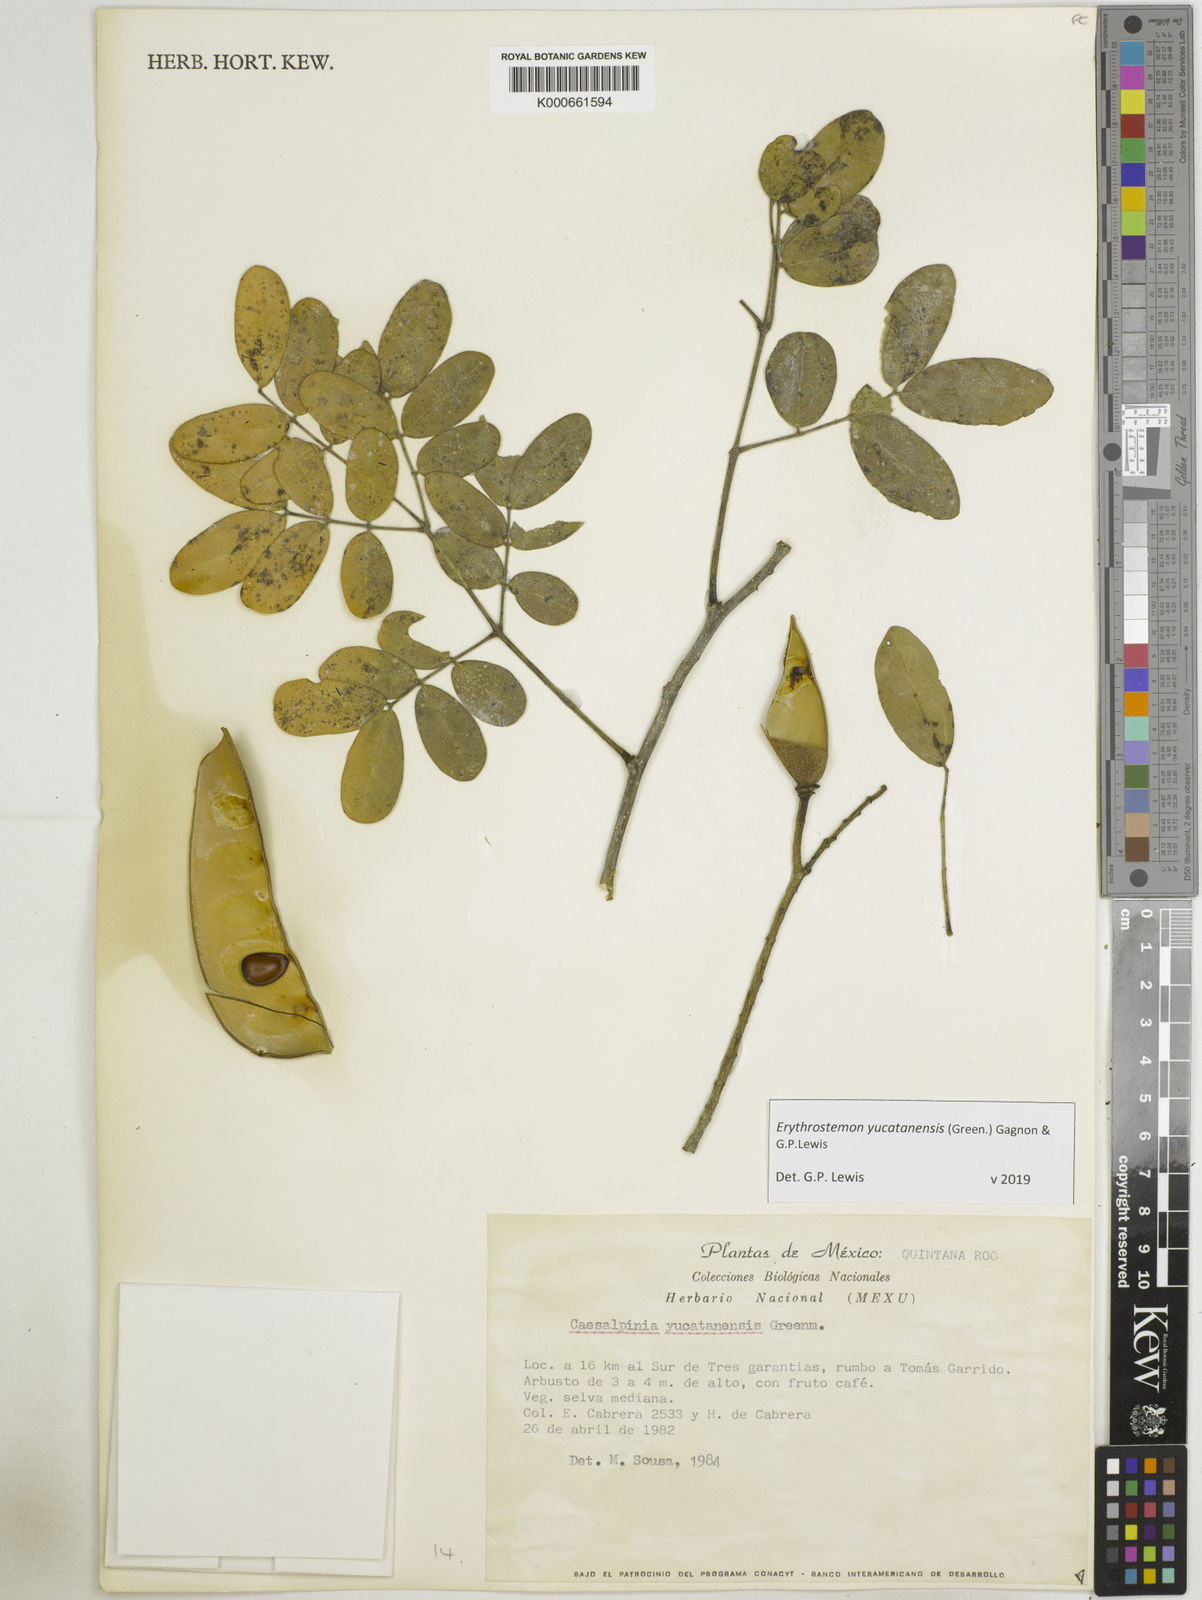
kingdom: Plantae
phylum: Tracheophyta
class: Magnoliopsida
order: Fabales
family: Fabaceae
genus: Caesalpinia
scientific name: Caesalpinia
